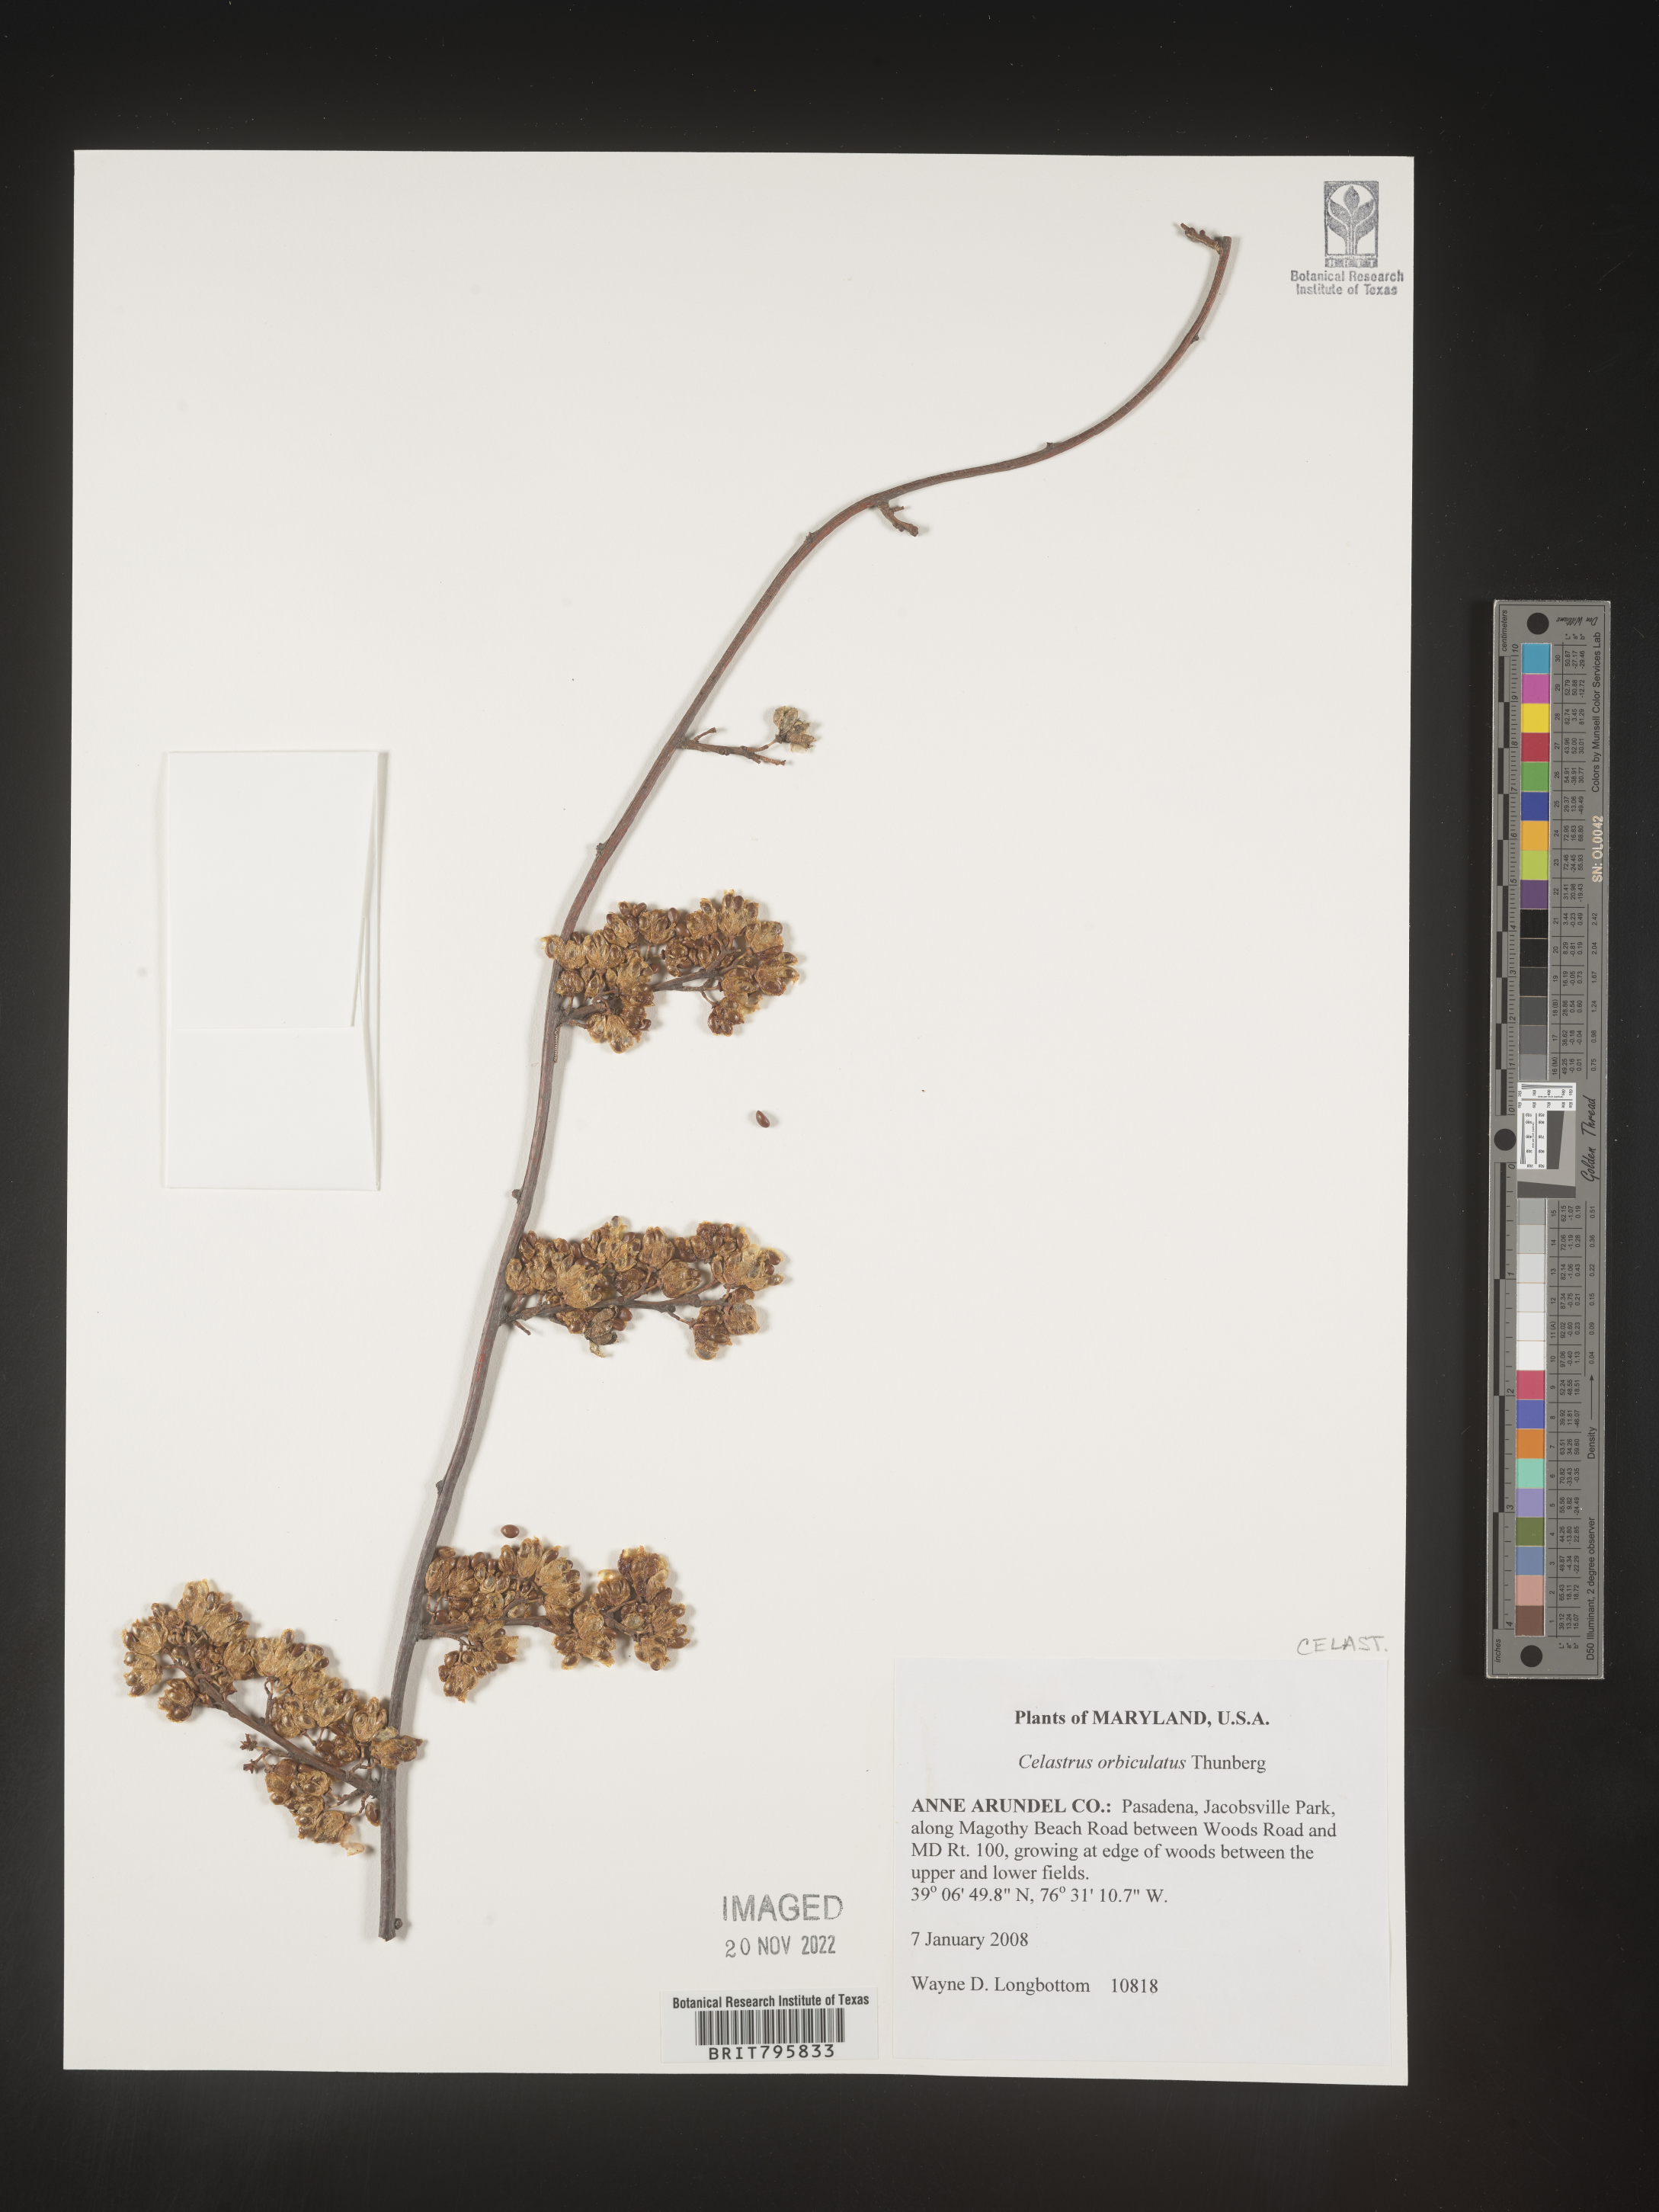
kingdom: Plantae
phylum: Tracheophyta
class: Magnoliopsida
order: Celastrales
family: Celastraceae
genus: Celastrus
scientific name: Celastrus
